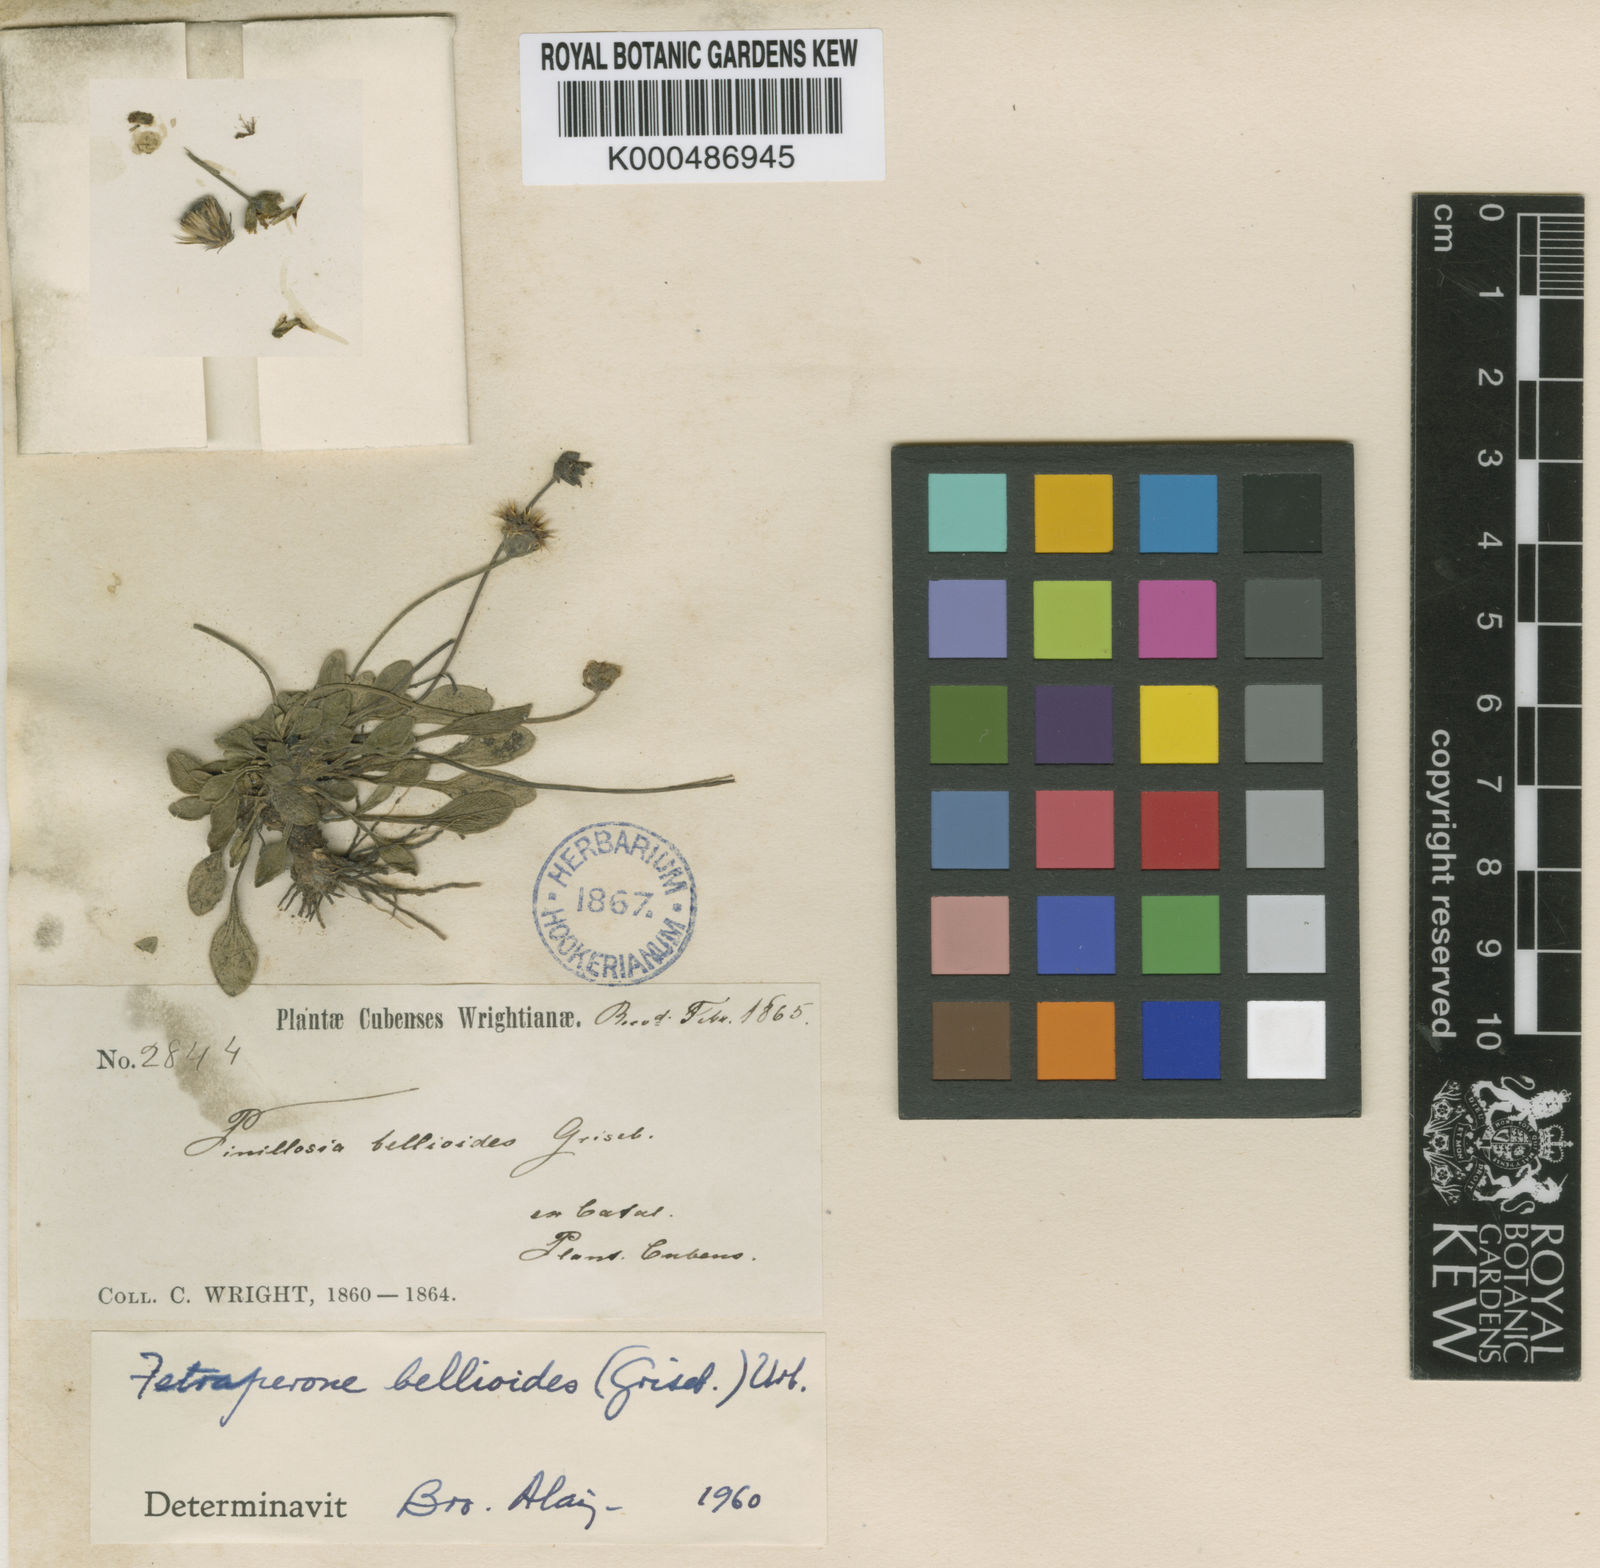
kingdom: Plantae
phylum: Tracheophyta
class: Magnoliopsida
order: Asterales
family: Asteraceae
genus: Tetraperone
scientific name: Tetraperone bellioides
